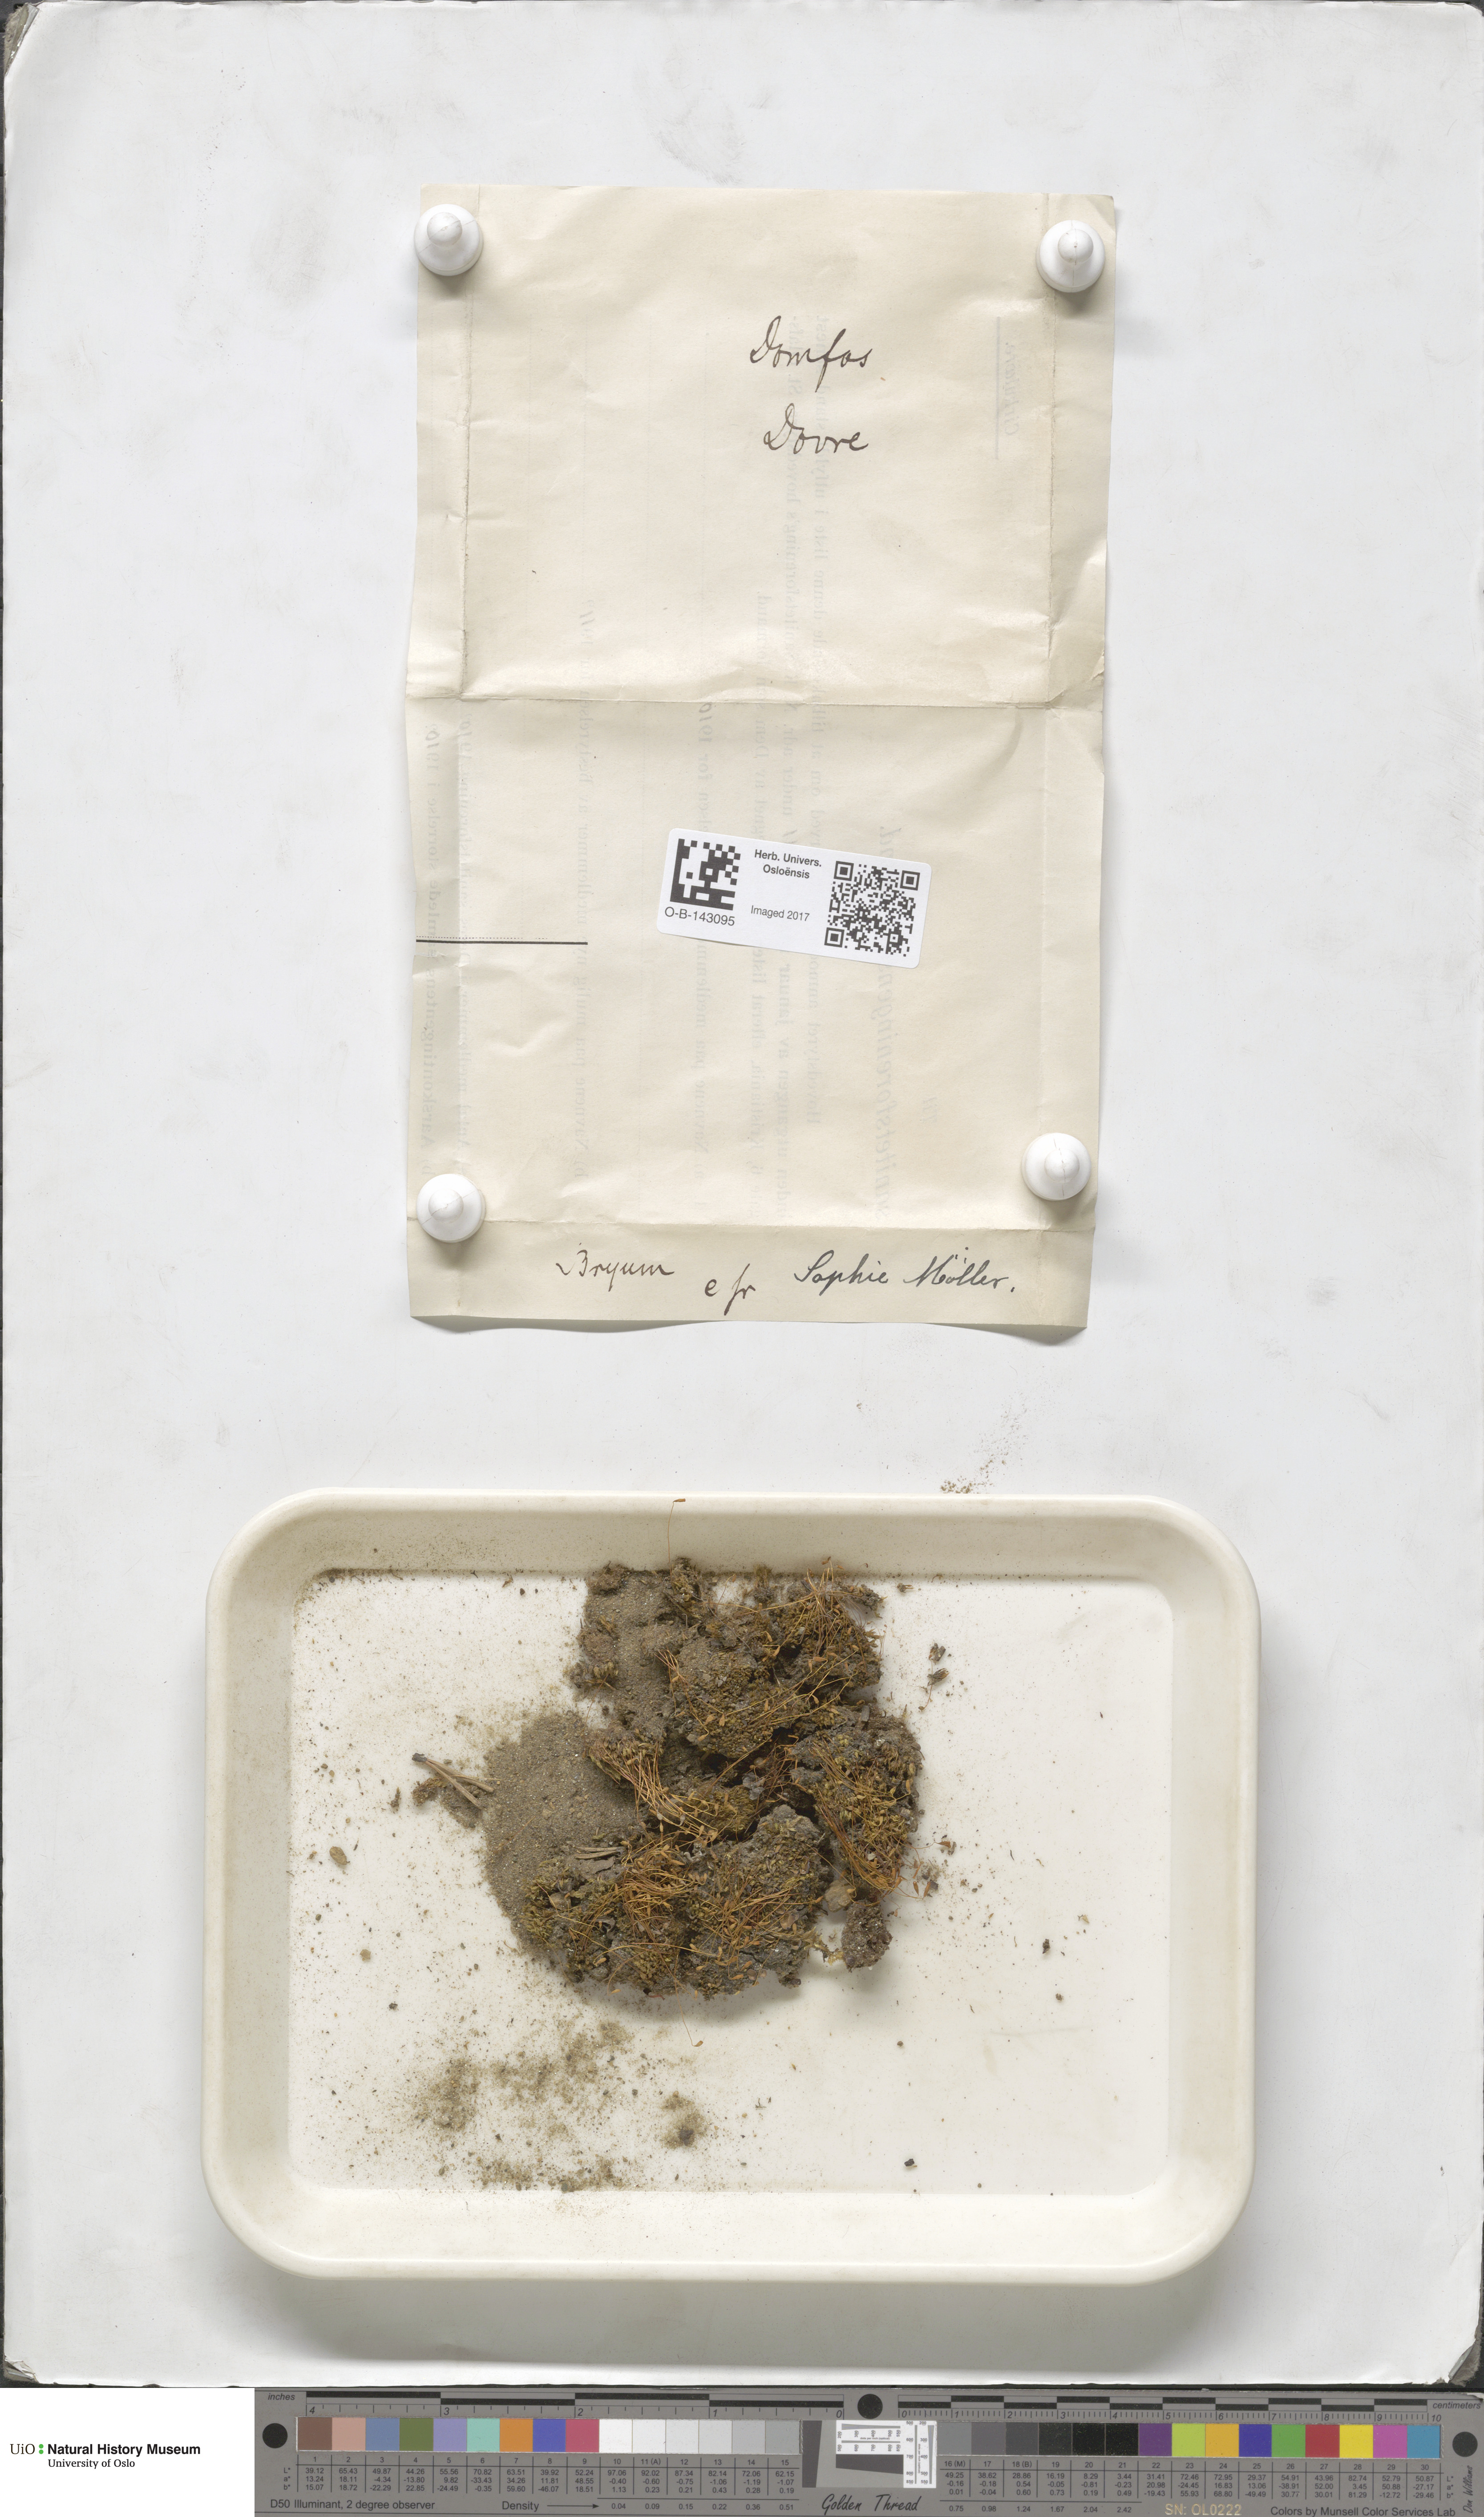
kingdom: Plantae
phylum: Bryophyta
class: Bryopsida
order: Bryales
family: Bryaceae
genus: Bryum
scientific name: Bryum
